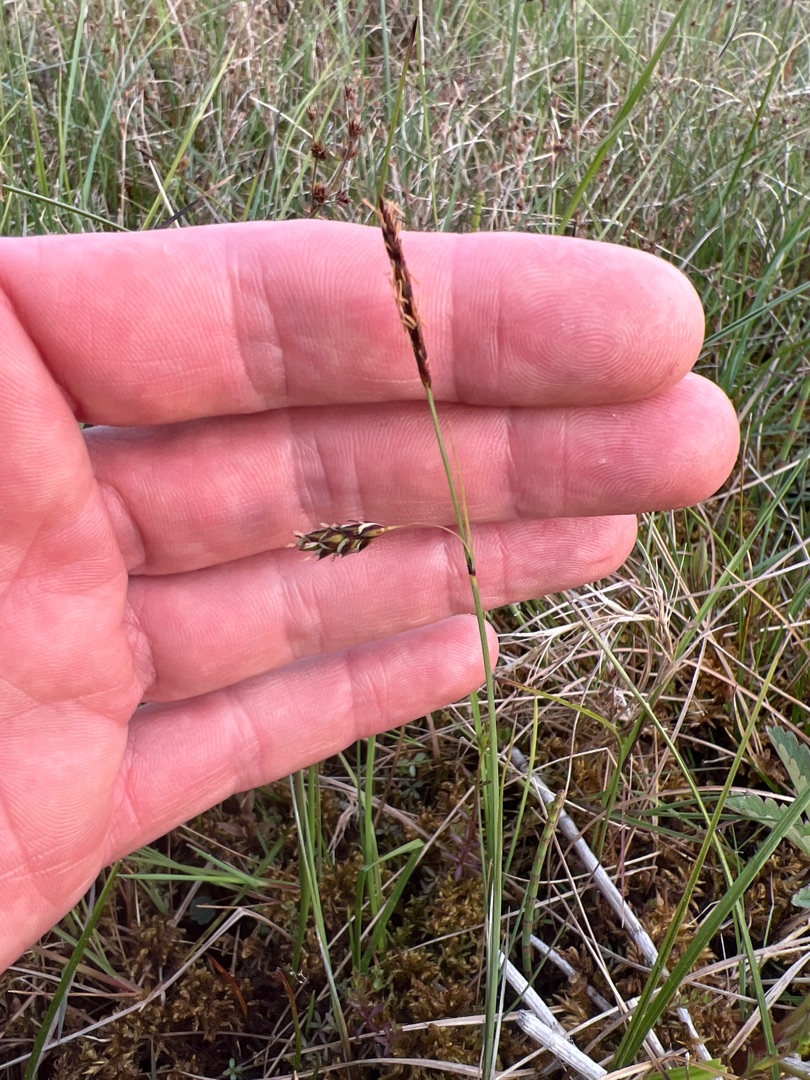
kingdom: Plantae
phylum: Tracheophyta
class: Liliopsida
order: Poales
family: Cyperaceae
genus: Carex
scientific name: Carex limosa
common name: Dynd-star
